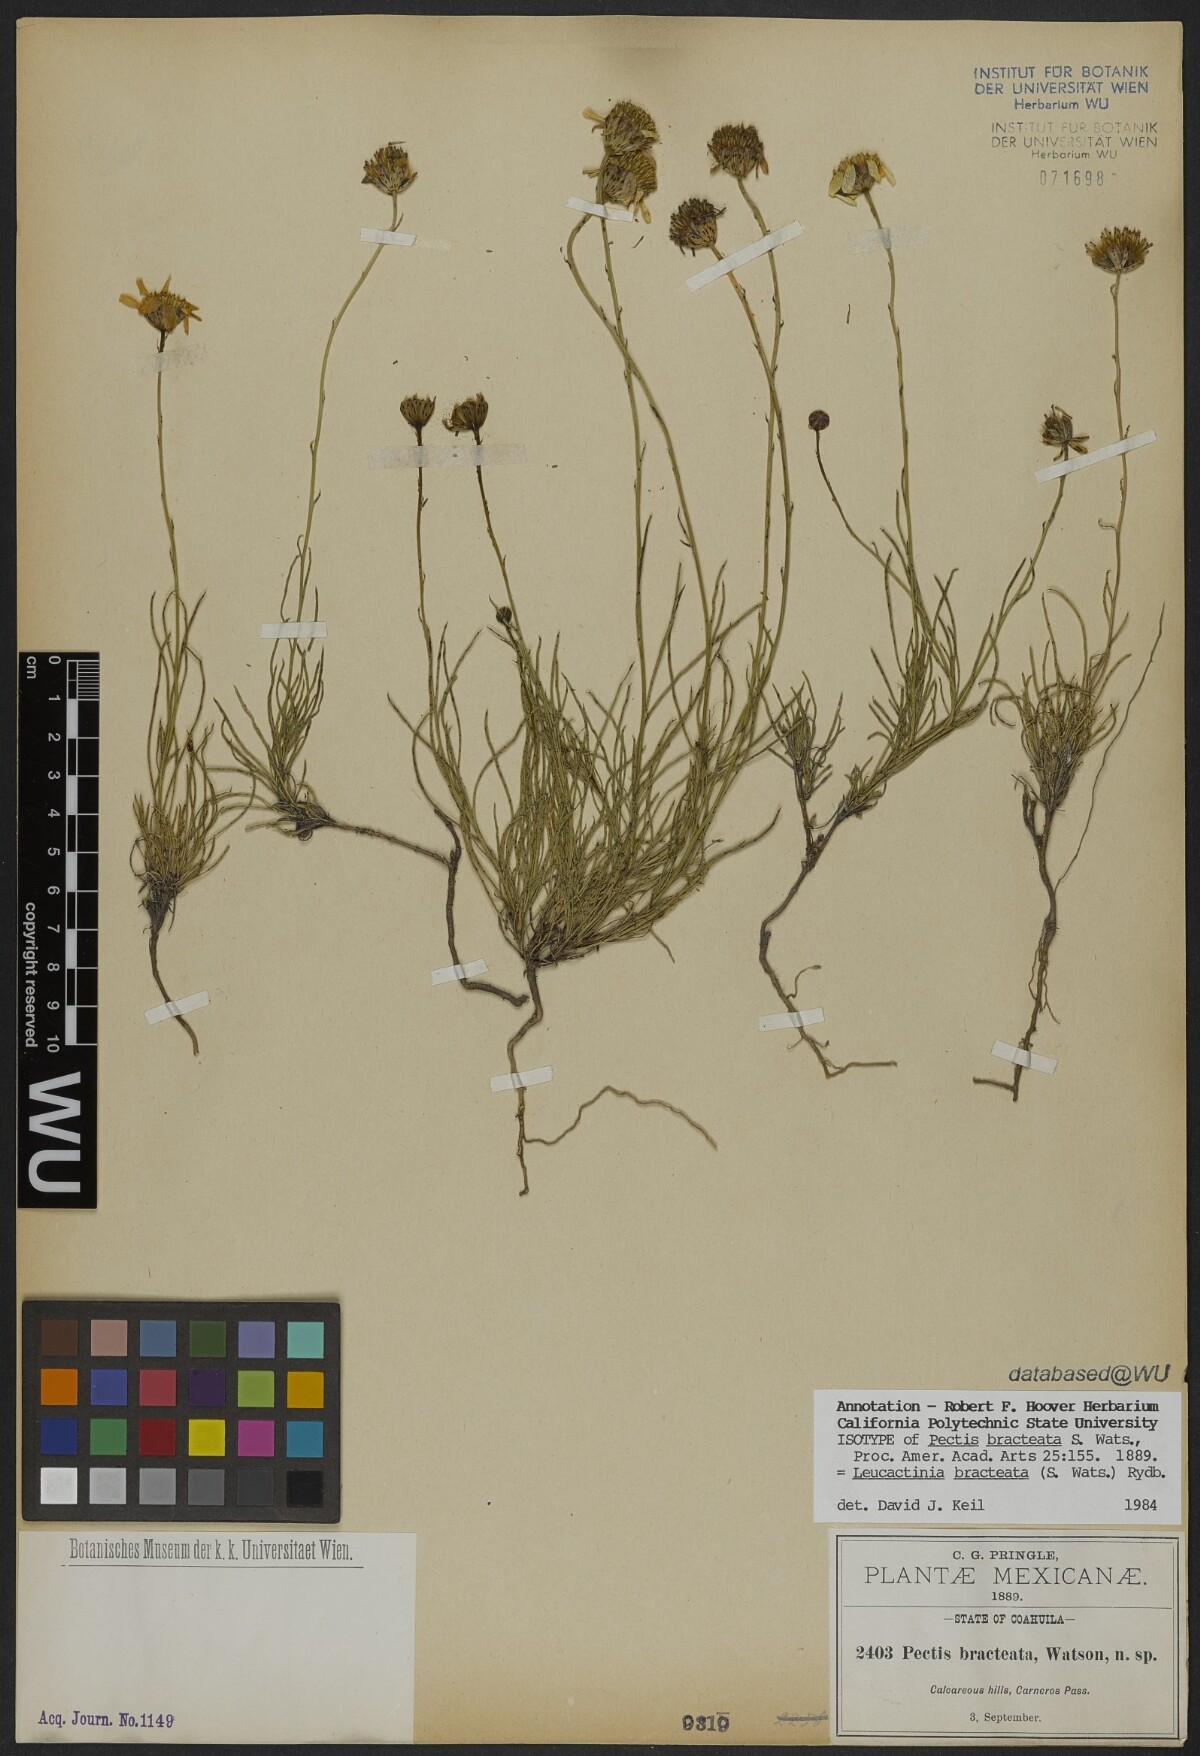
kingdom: Plantae
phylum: Tracheophyta
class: Magnoliopsida
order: Asterales
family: Asteraceae
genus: Leucactinia
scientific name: Leucactinia bracteata
